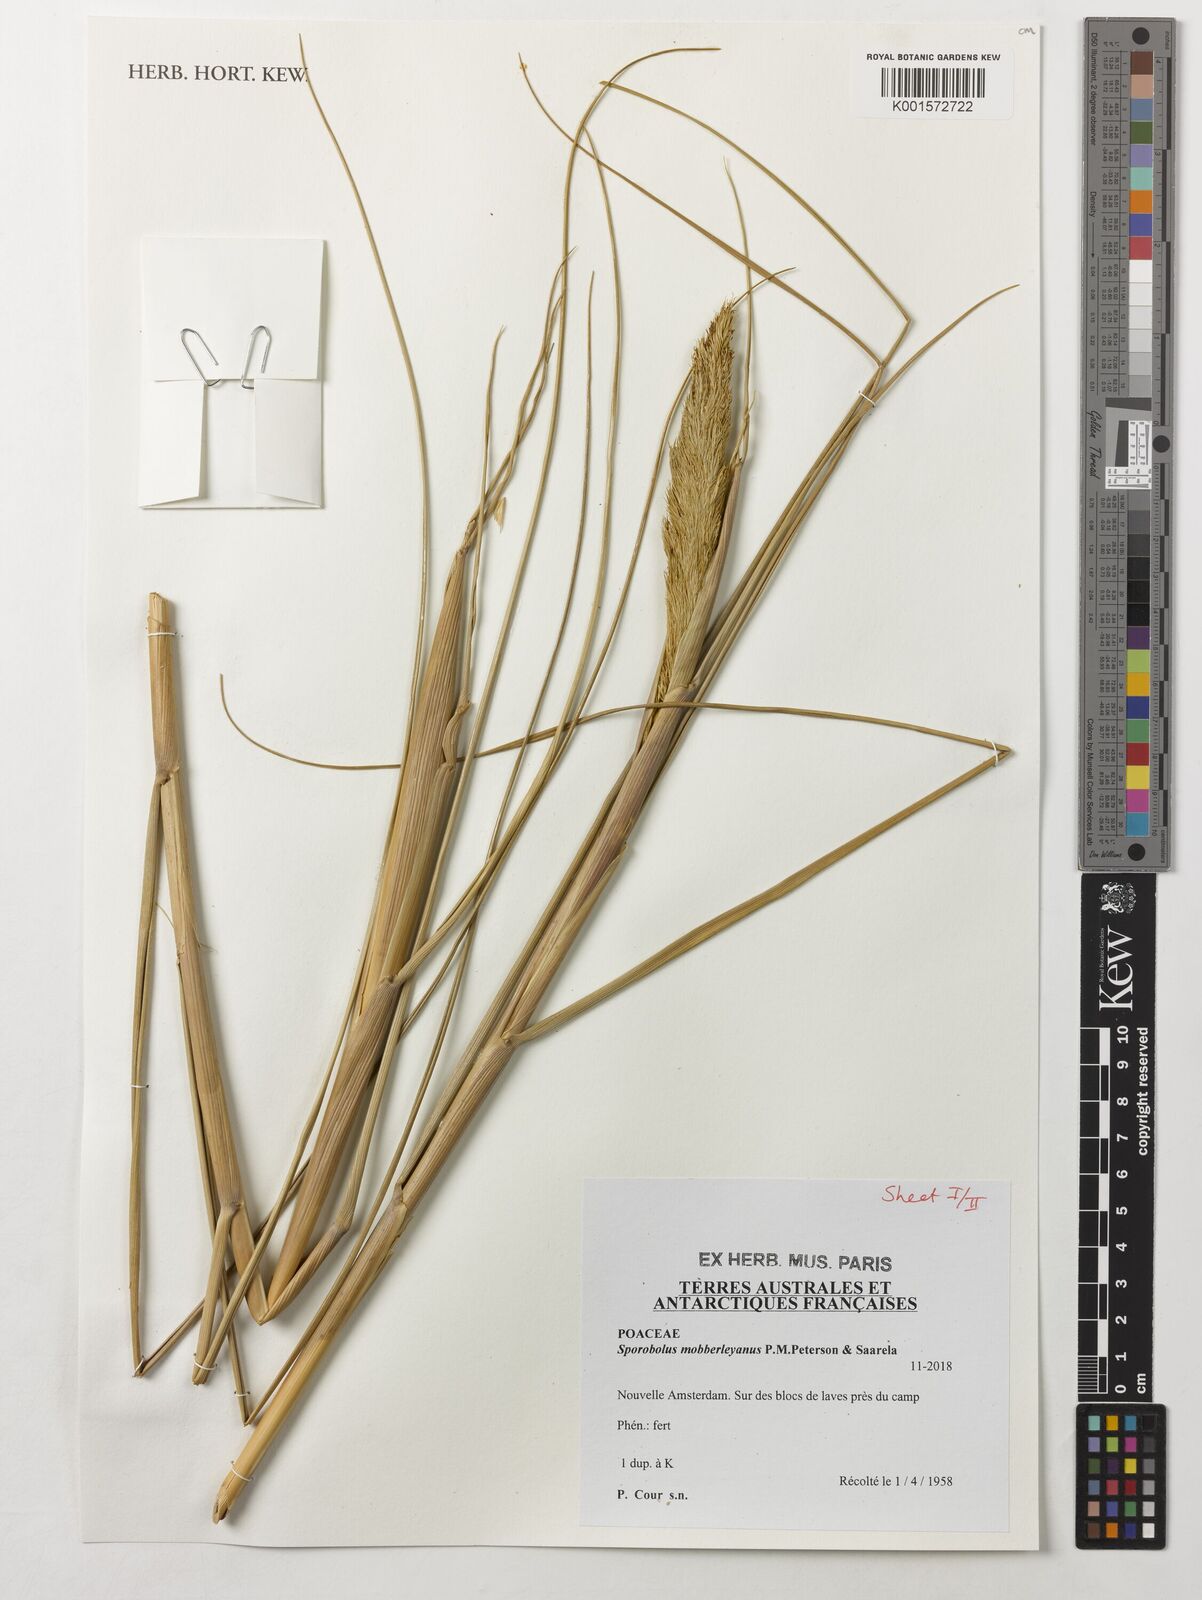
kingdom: Plantae
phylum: Tracheophyta
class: Liliopsida
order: Poales
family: Poaceae
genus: Sporobolus
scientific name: Sporobolus mobberleyanus
